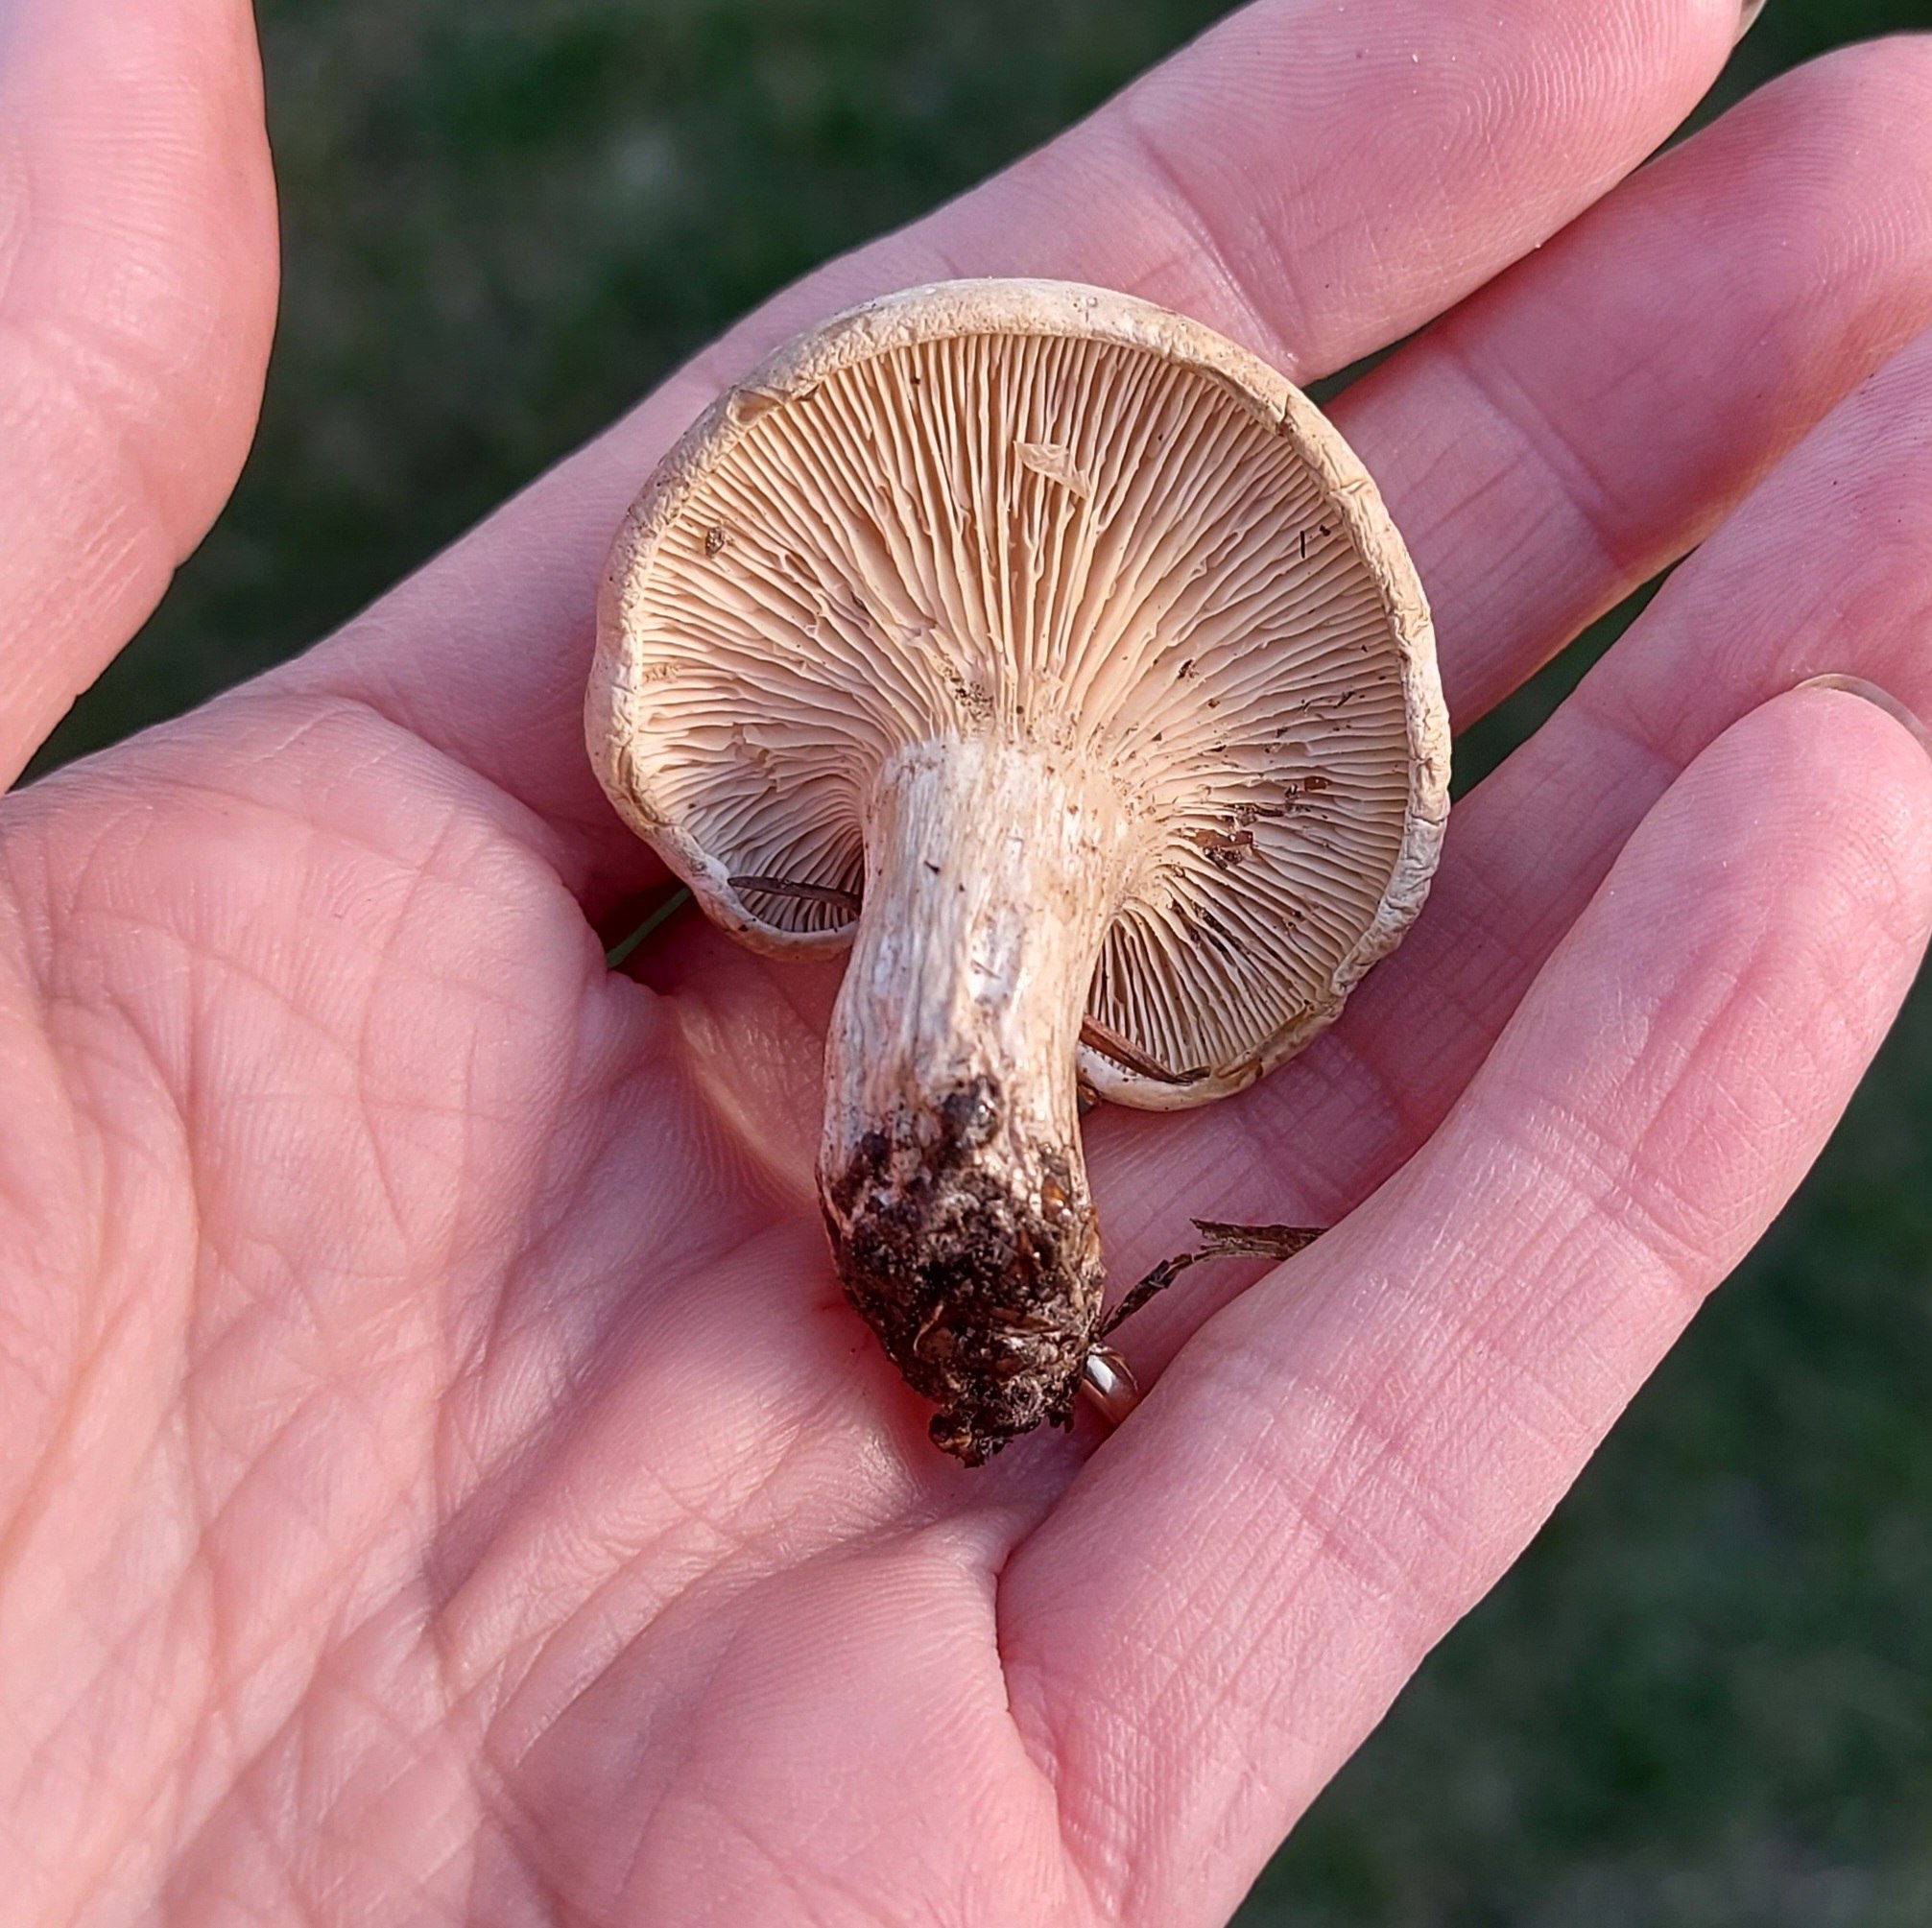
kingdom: Fungi
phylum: Basidiomycota
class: Agaricomycetes
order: Agaricales
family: Entolomataceae
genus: Clitopilus
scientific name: Clitopilus prunulus
